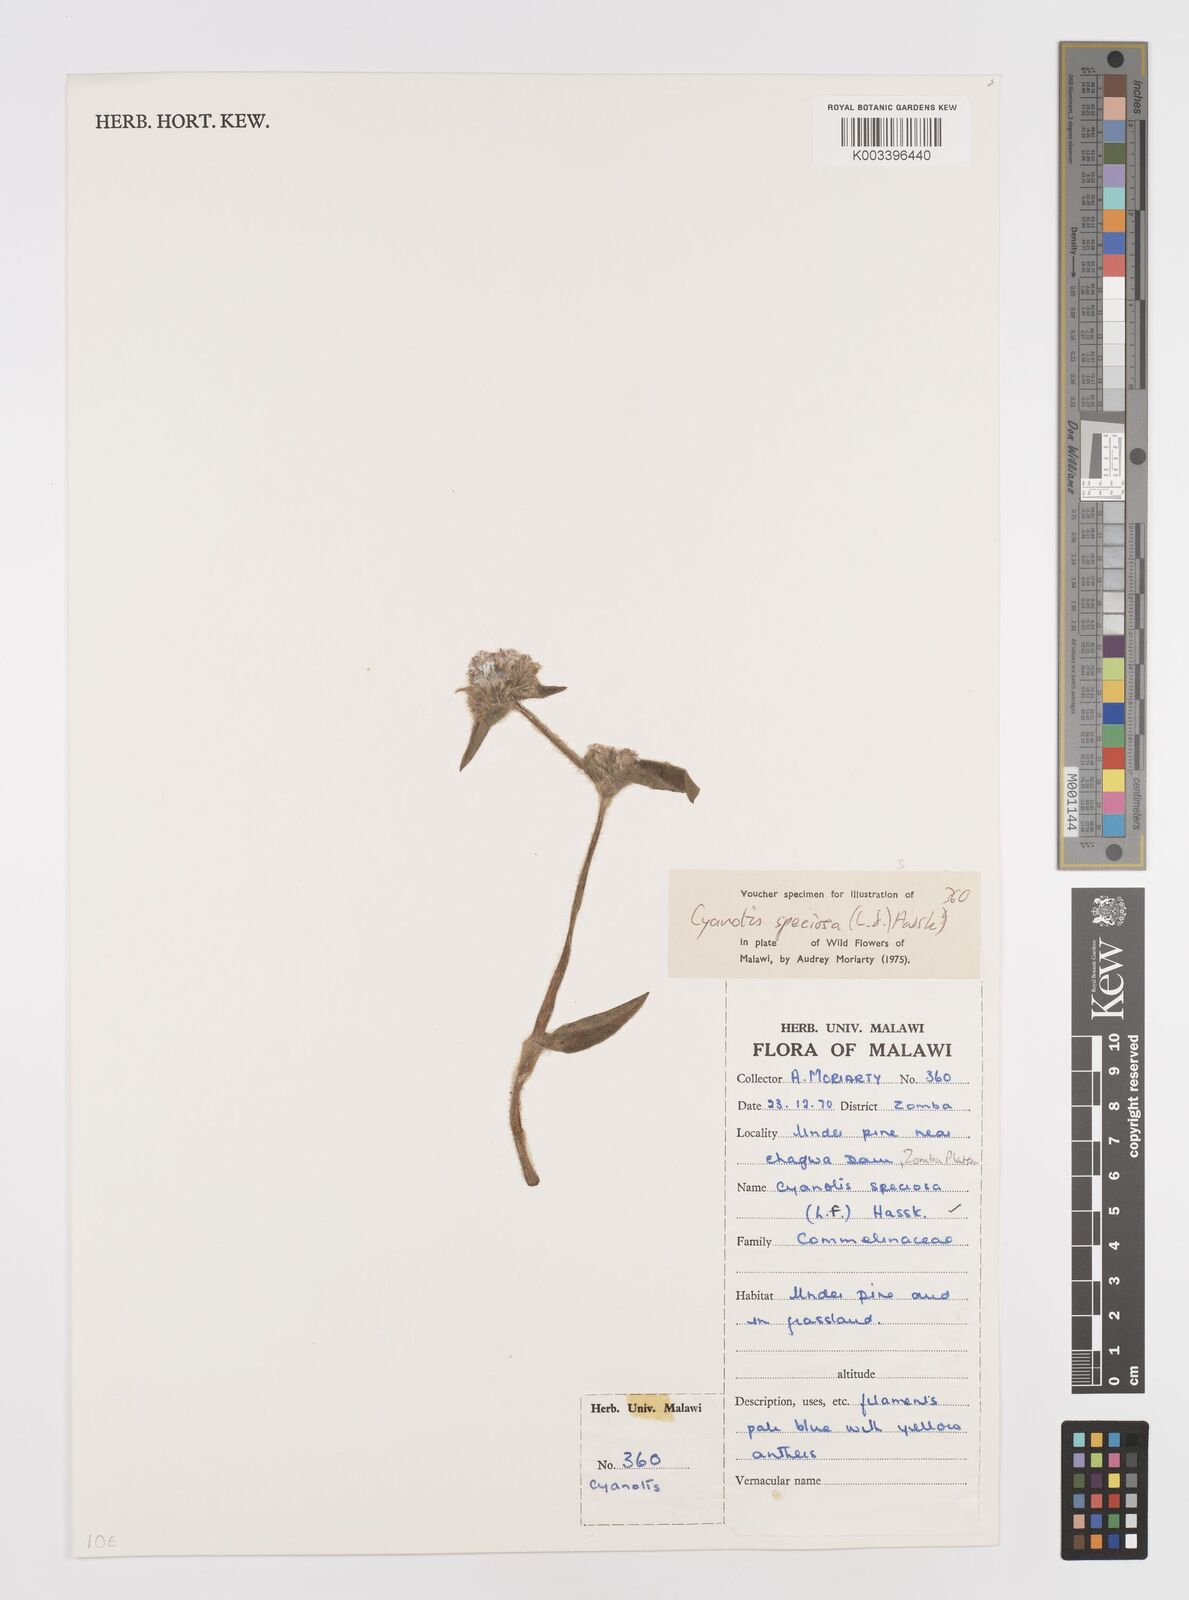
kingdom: Plantae
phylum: Tracheophyta
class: Liliopsida
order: Commelinales
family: Commelinaceae
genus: Cyanotis
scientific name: Cyanotis speciosa
